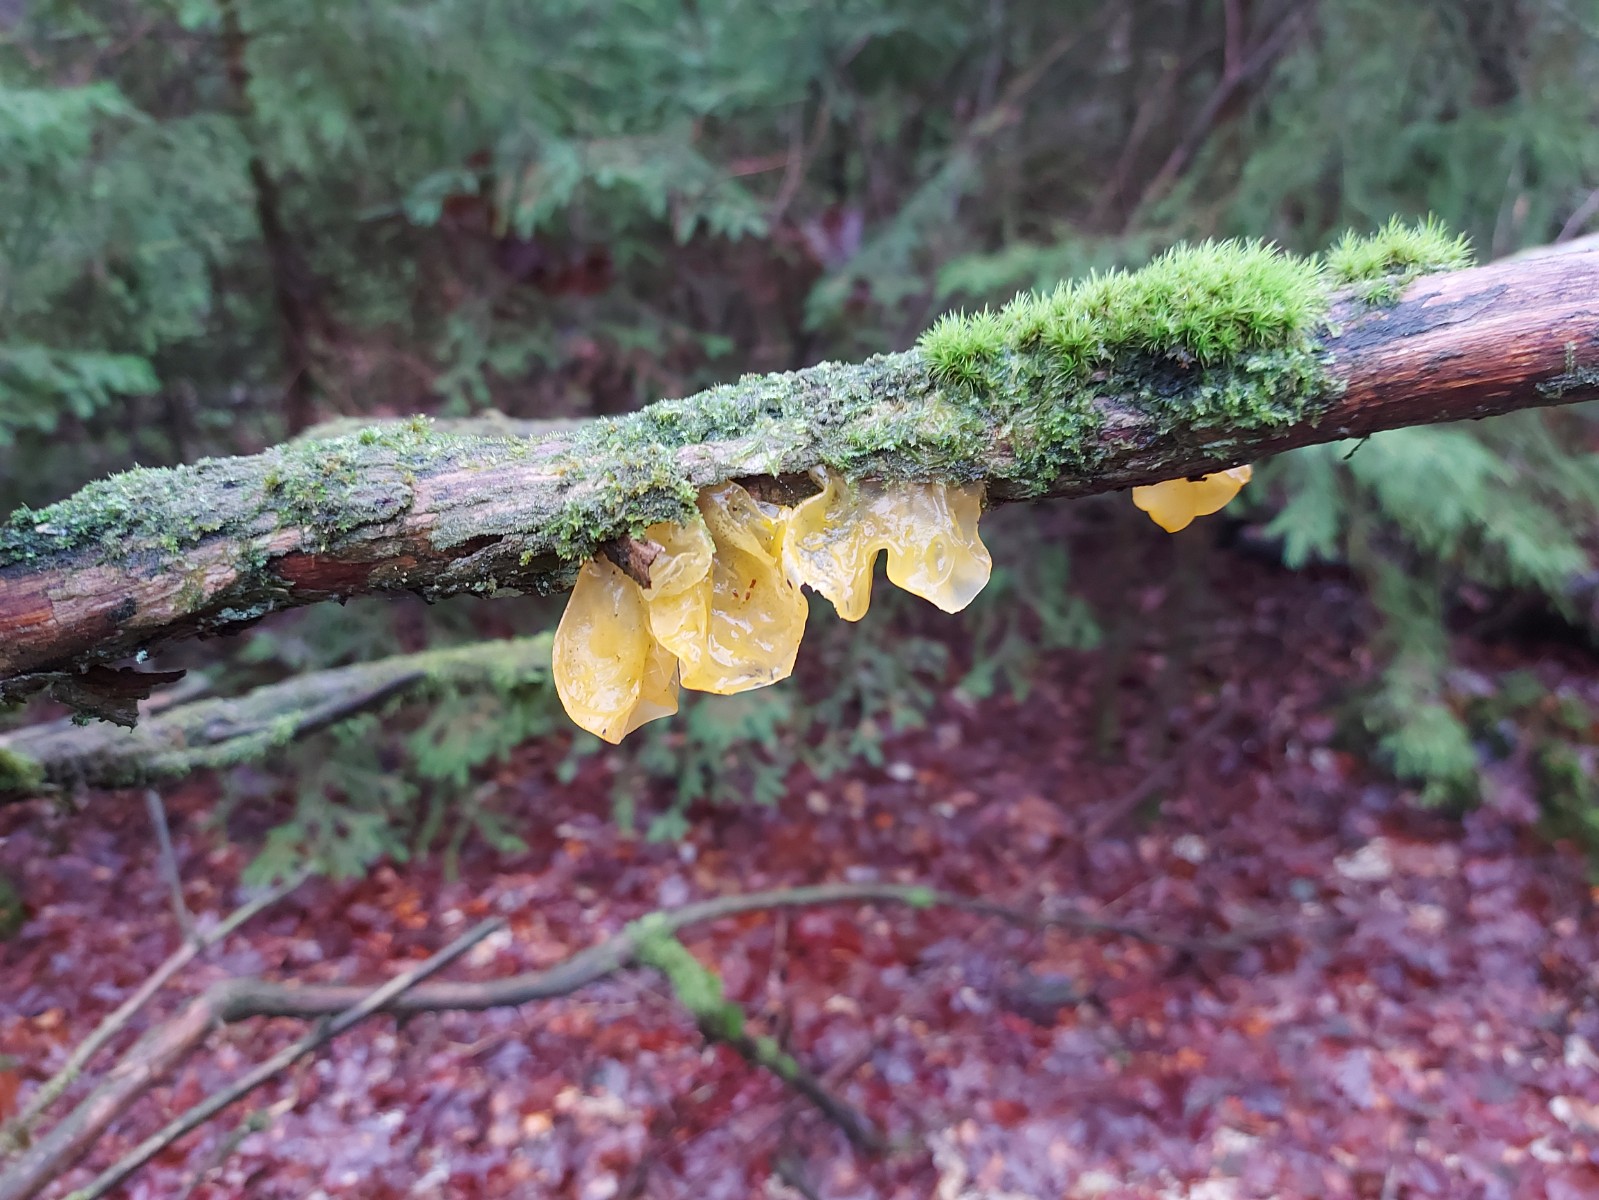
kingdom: Fungi
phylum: Basidiomycota
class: Tremellomycetes
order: Tremellales
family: Tremellaceae
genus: Tremella
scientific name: Tremella mesenterica
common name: gul bævresvamp
